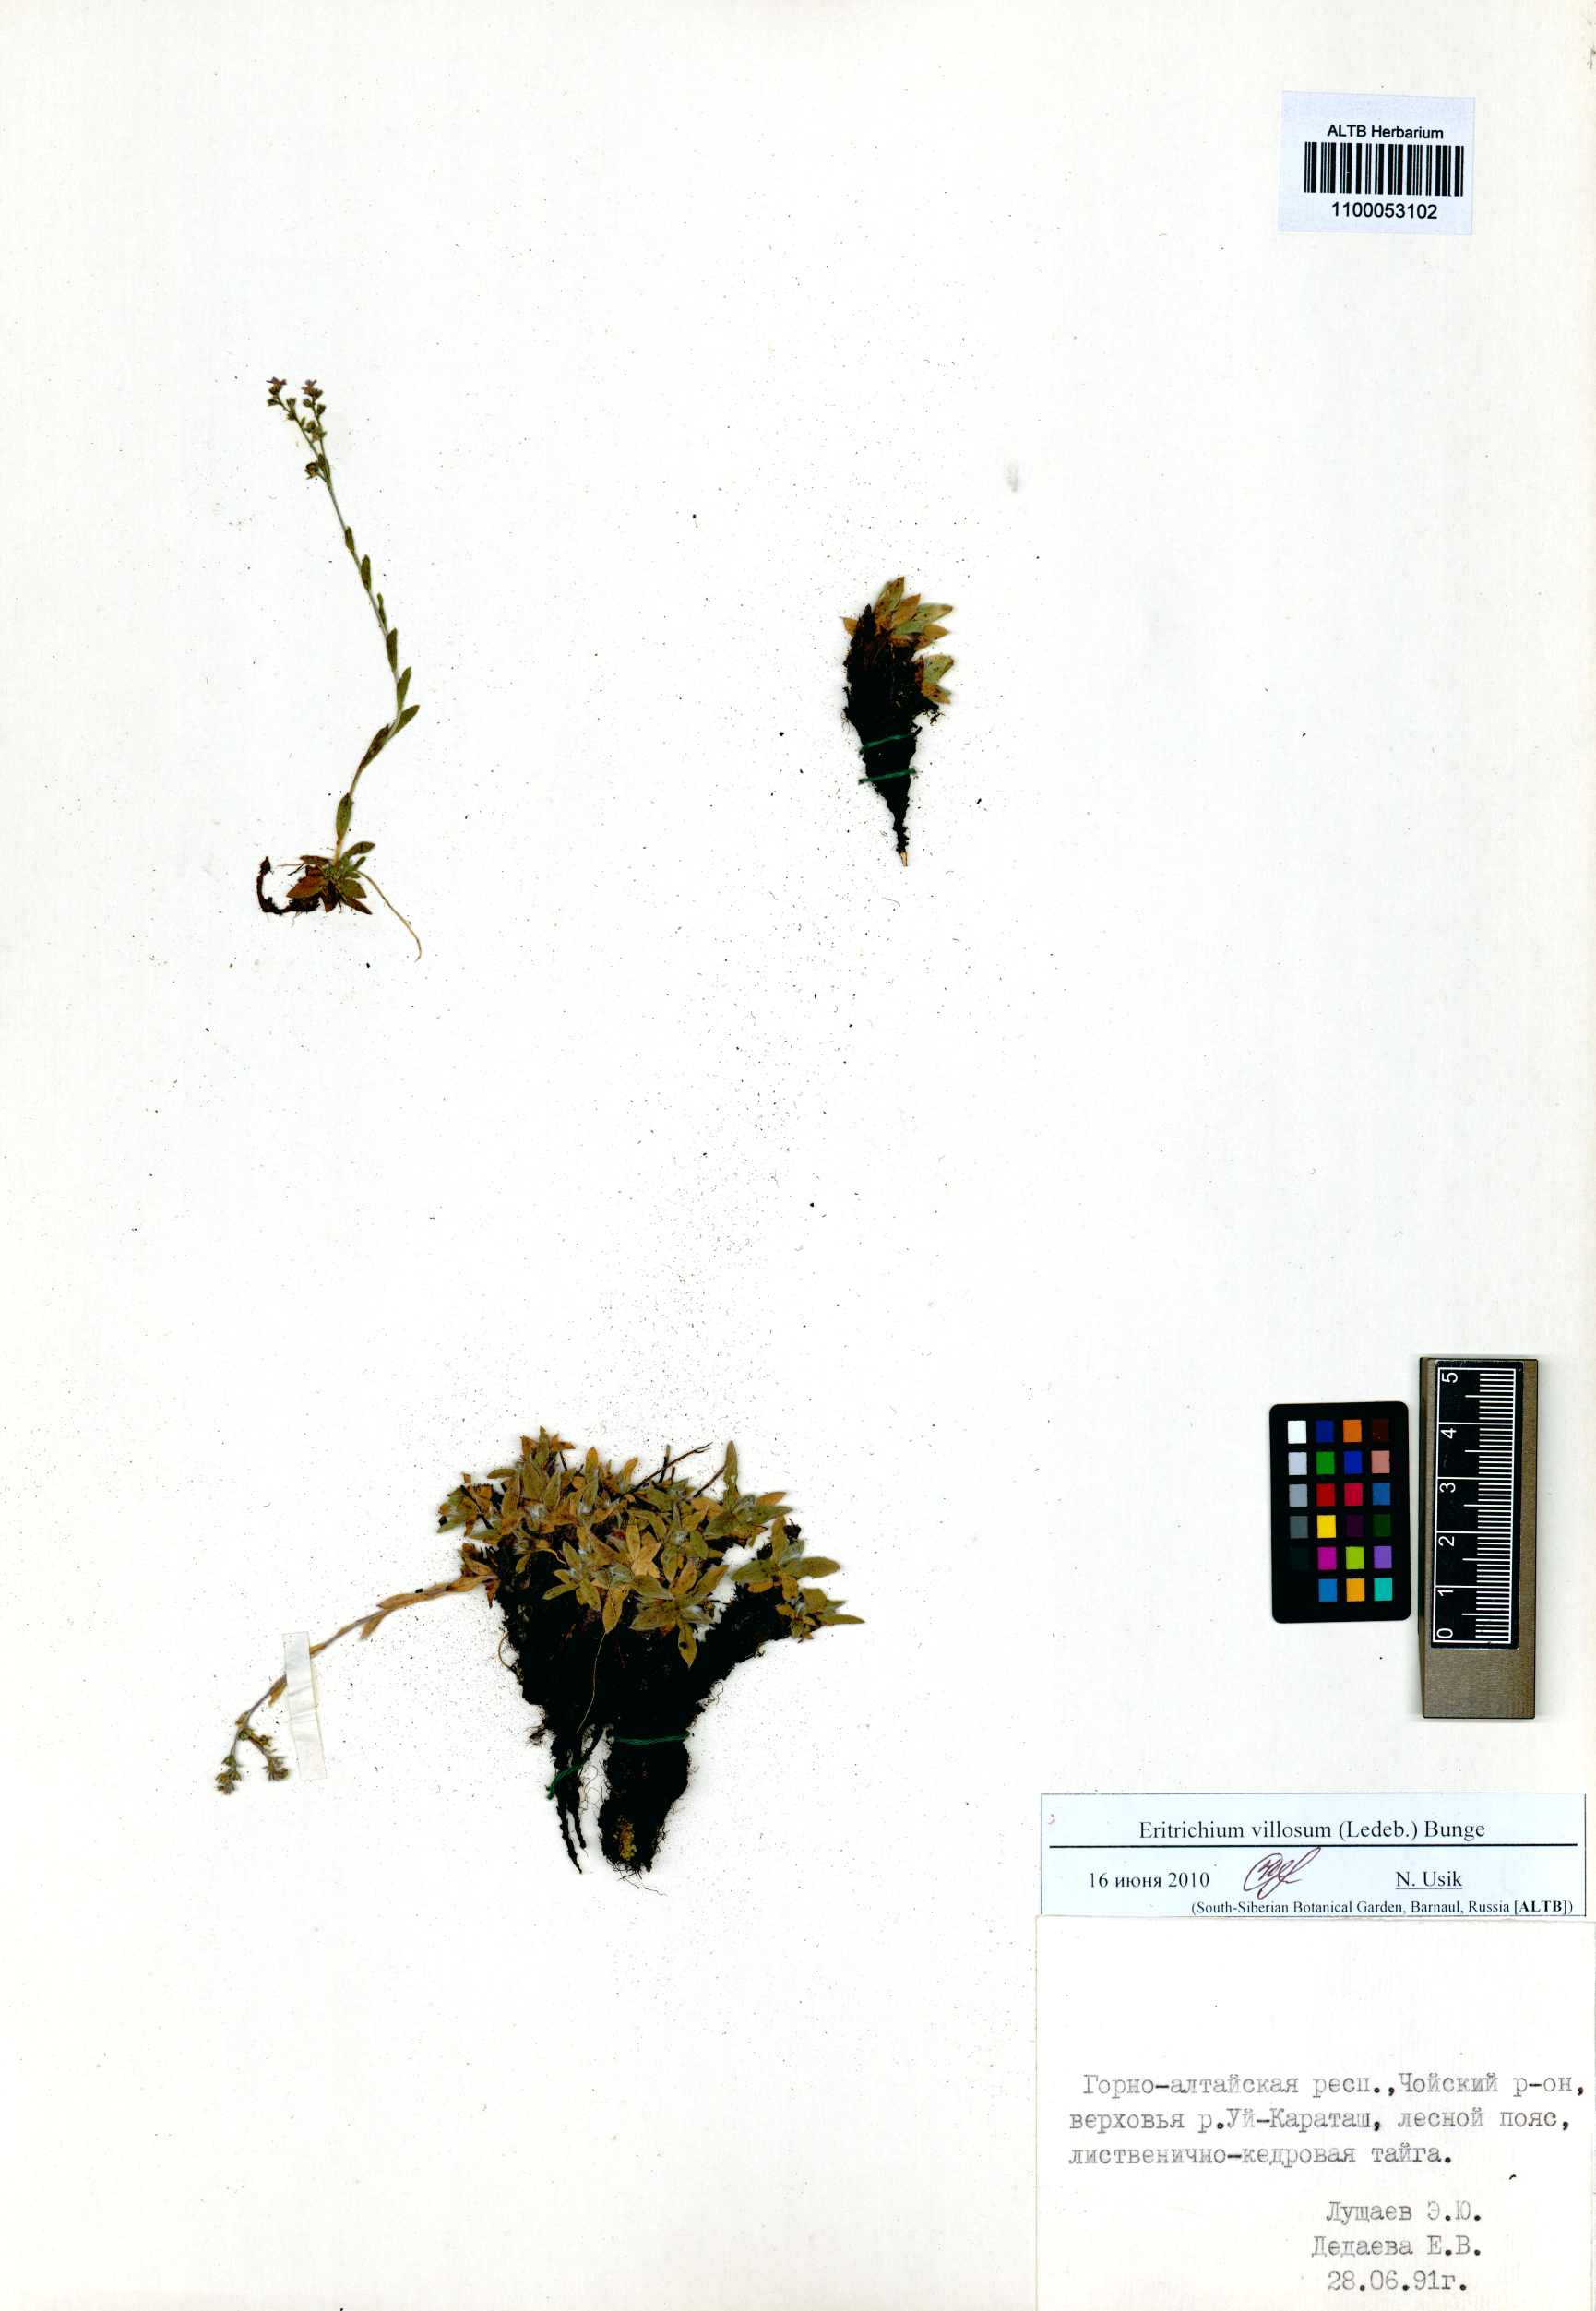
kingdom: Plantae
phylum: Tracheophyta
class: Magnoliopsida
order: Boraginales
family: Boraginaceae
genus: Eritrichium
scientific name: Eritrichium villosum
